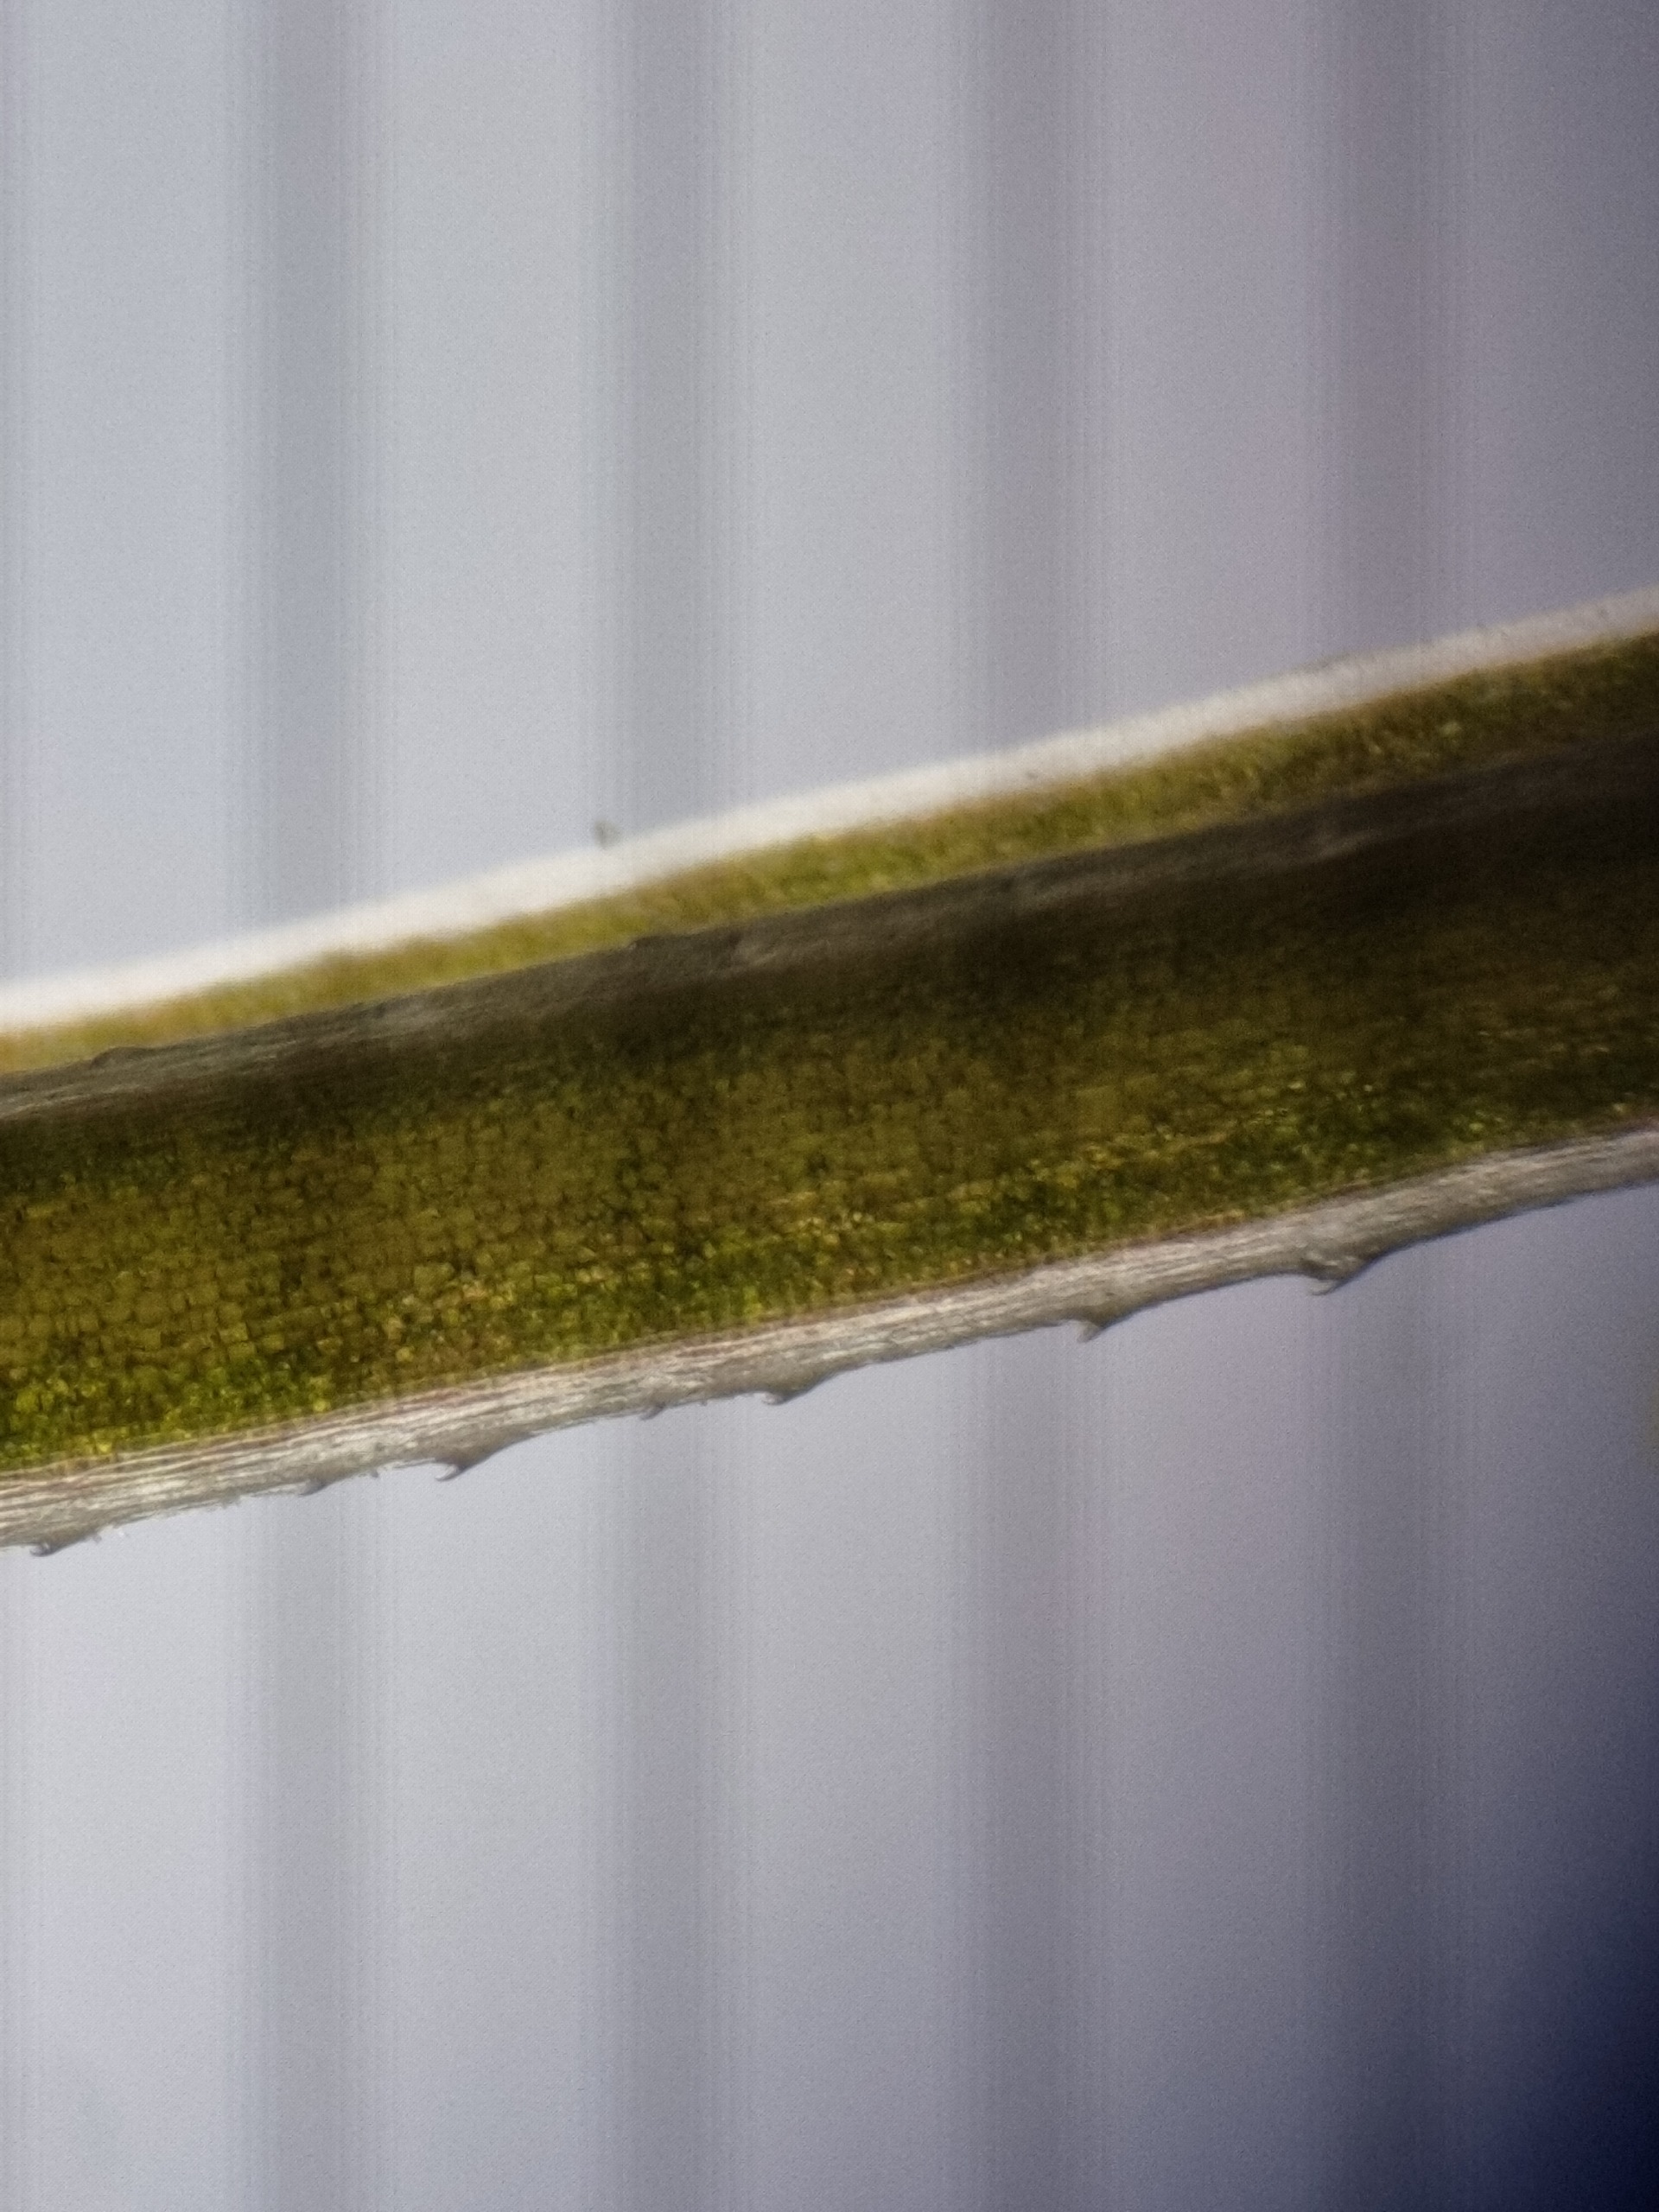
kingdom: Plantae
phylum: Tracheophyta
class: Magnoliopsida
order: Gentianales
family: Rubiaceae
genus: Galium
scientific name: Galium palustre
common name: Kær-snerre
